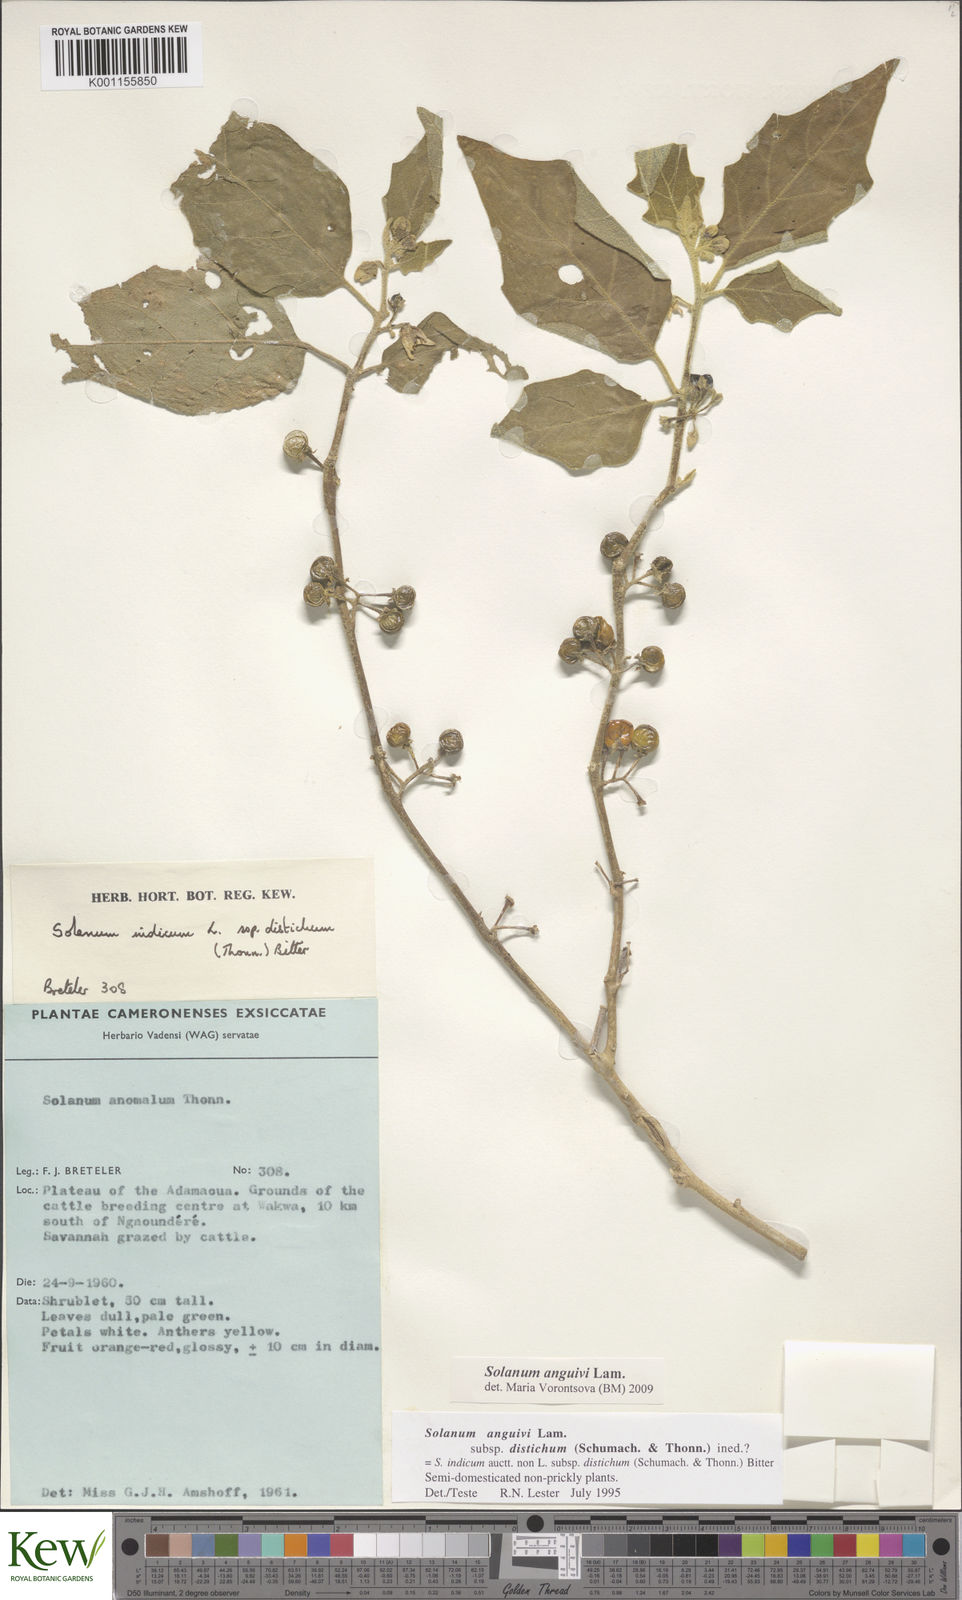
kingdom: Plantae
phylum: Tracheophyta
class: Magnoliopsida
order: Solanales
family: Solanaceae
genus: Solanum
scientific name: Solanum anguivi
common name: Forest bitterberry
